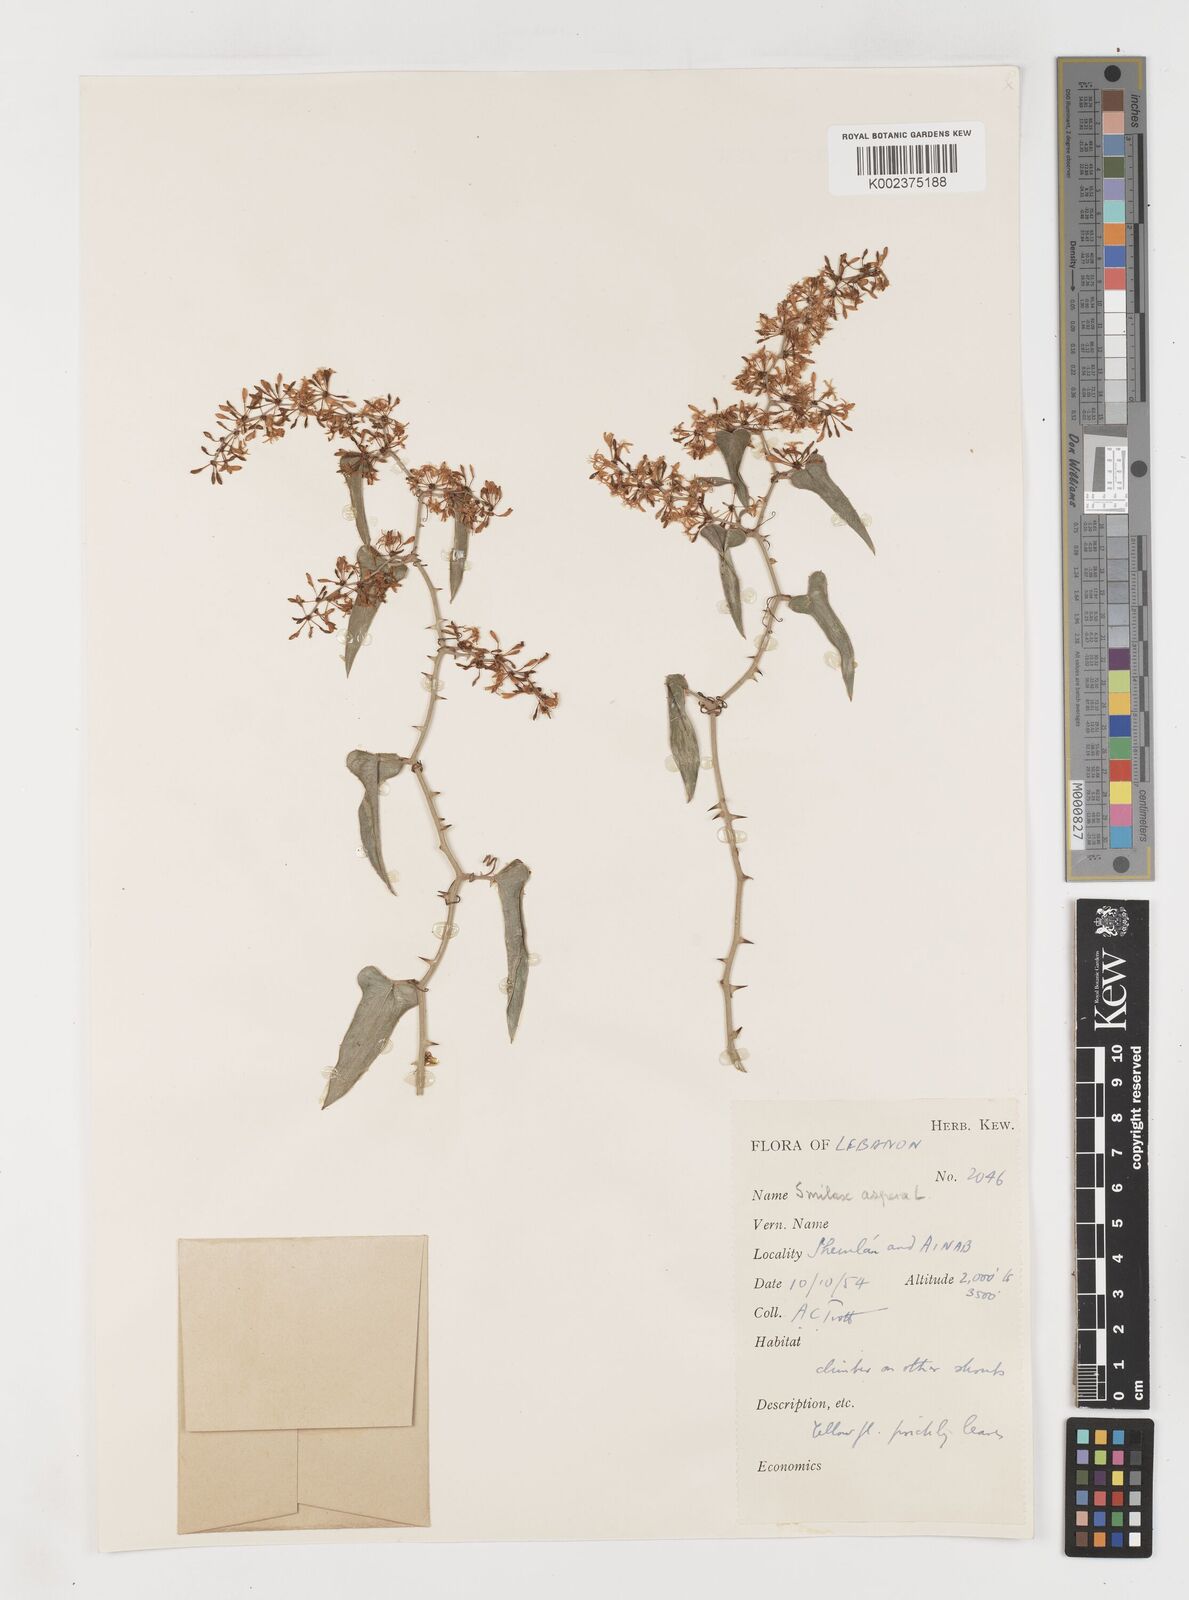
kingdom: Plantae
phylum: Tracheophyta
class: Liliopsida
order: Liliales
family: Smilacaceae
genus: Smilax
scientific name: Smilax aspera
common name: Common smilax
